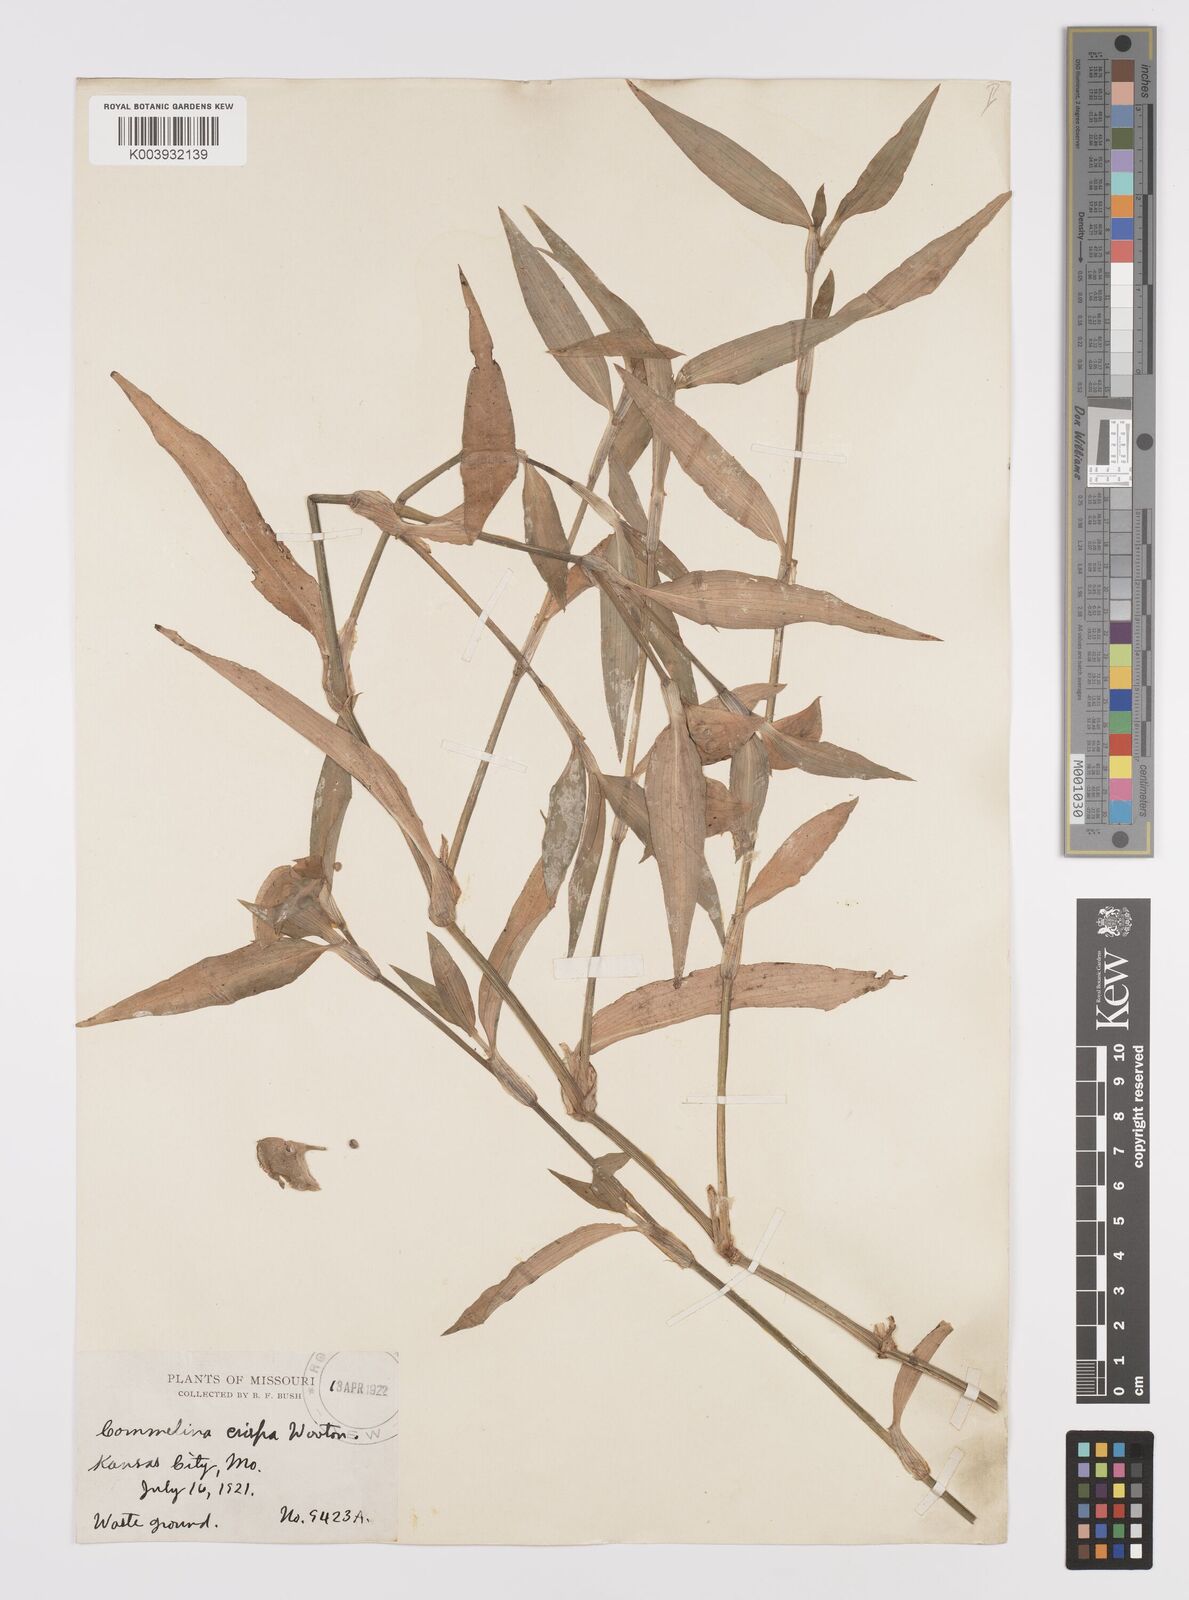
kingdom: Plantae
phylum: Tracheophyta
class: Liliopsida
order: Commelinales
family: Commelinaceae
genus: Commelina
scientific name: Commelina erecta
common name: Blousel blommetjie
